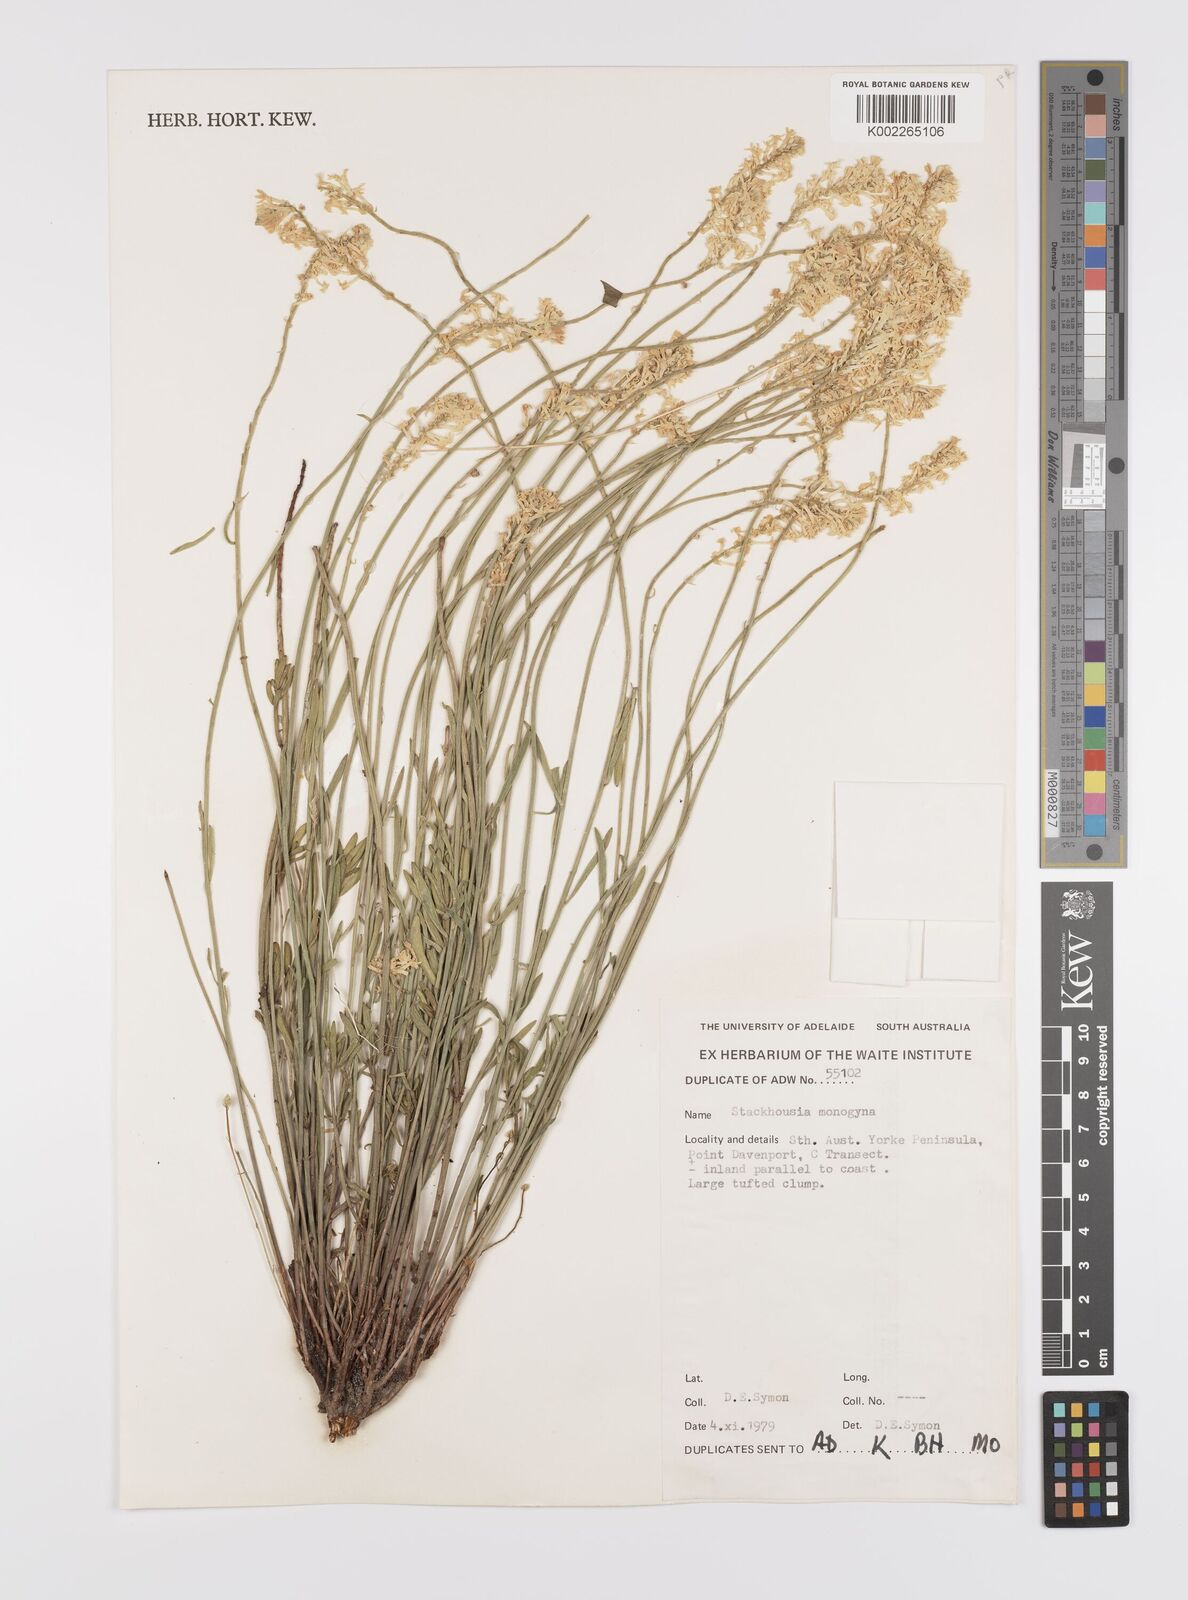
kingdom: Plantae
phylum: Tracheophyta
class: Magnoliopsida
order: Celastrales
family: Celastraceae
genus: Stackhousia
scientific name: Stackhousia monogyna
